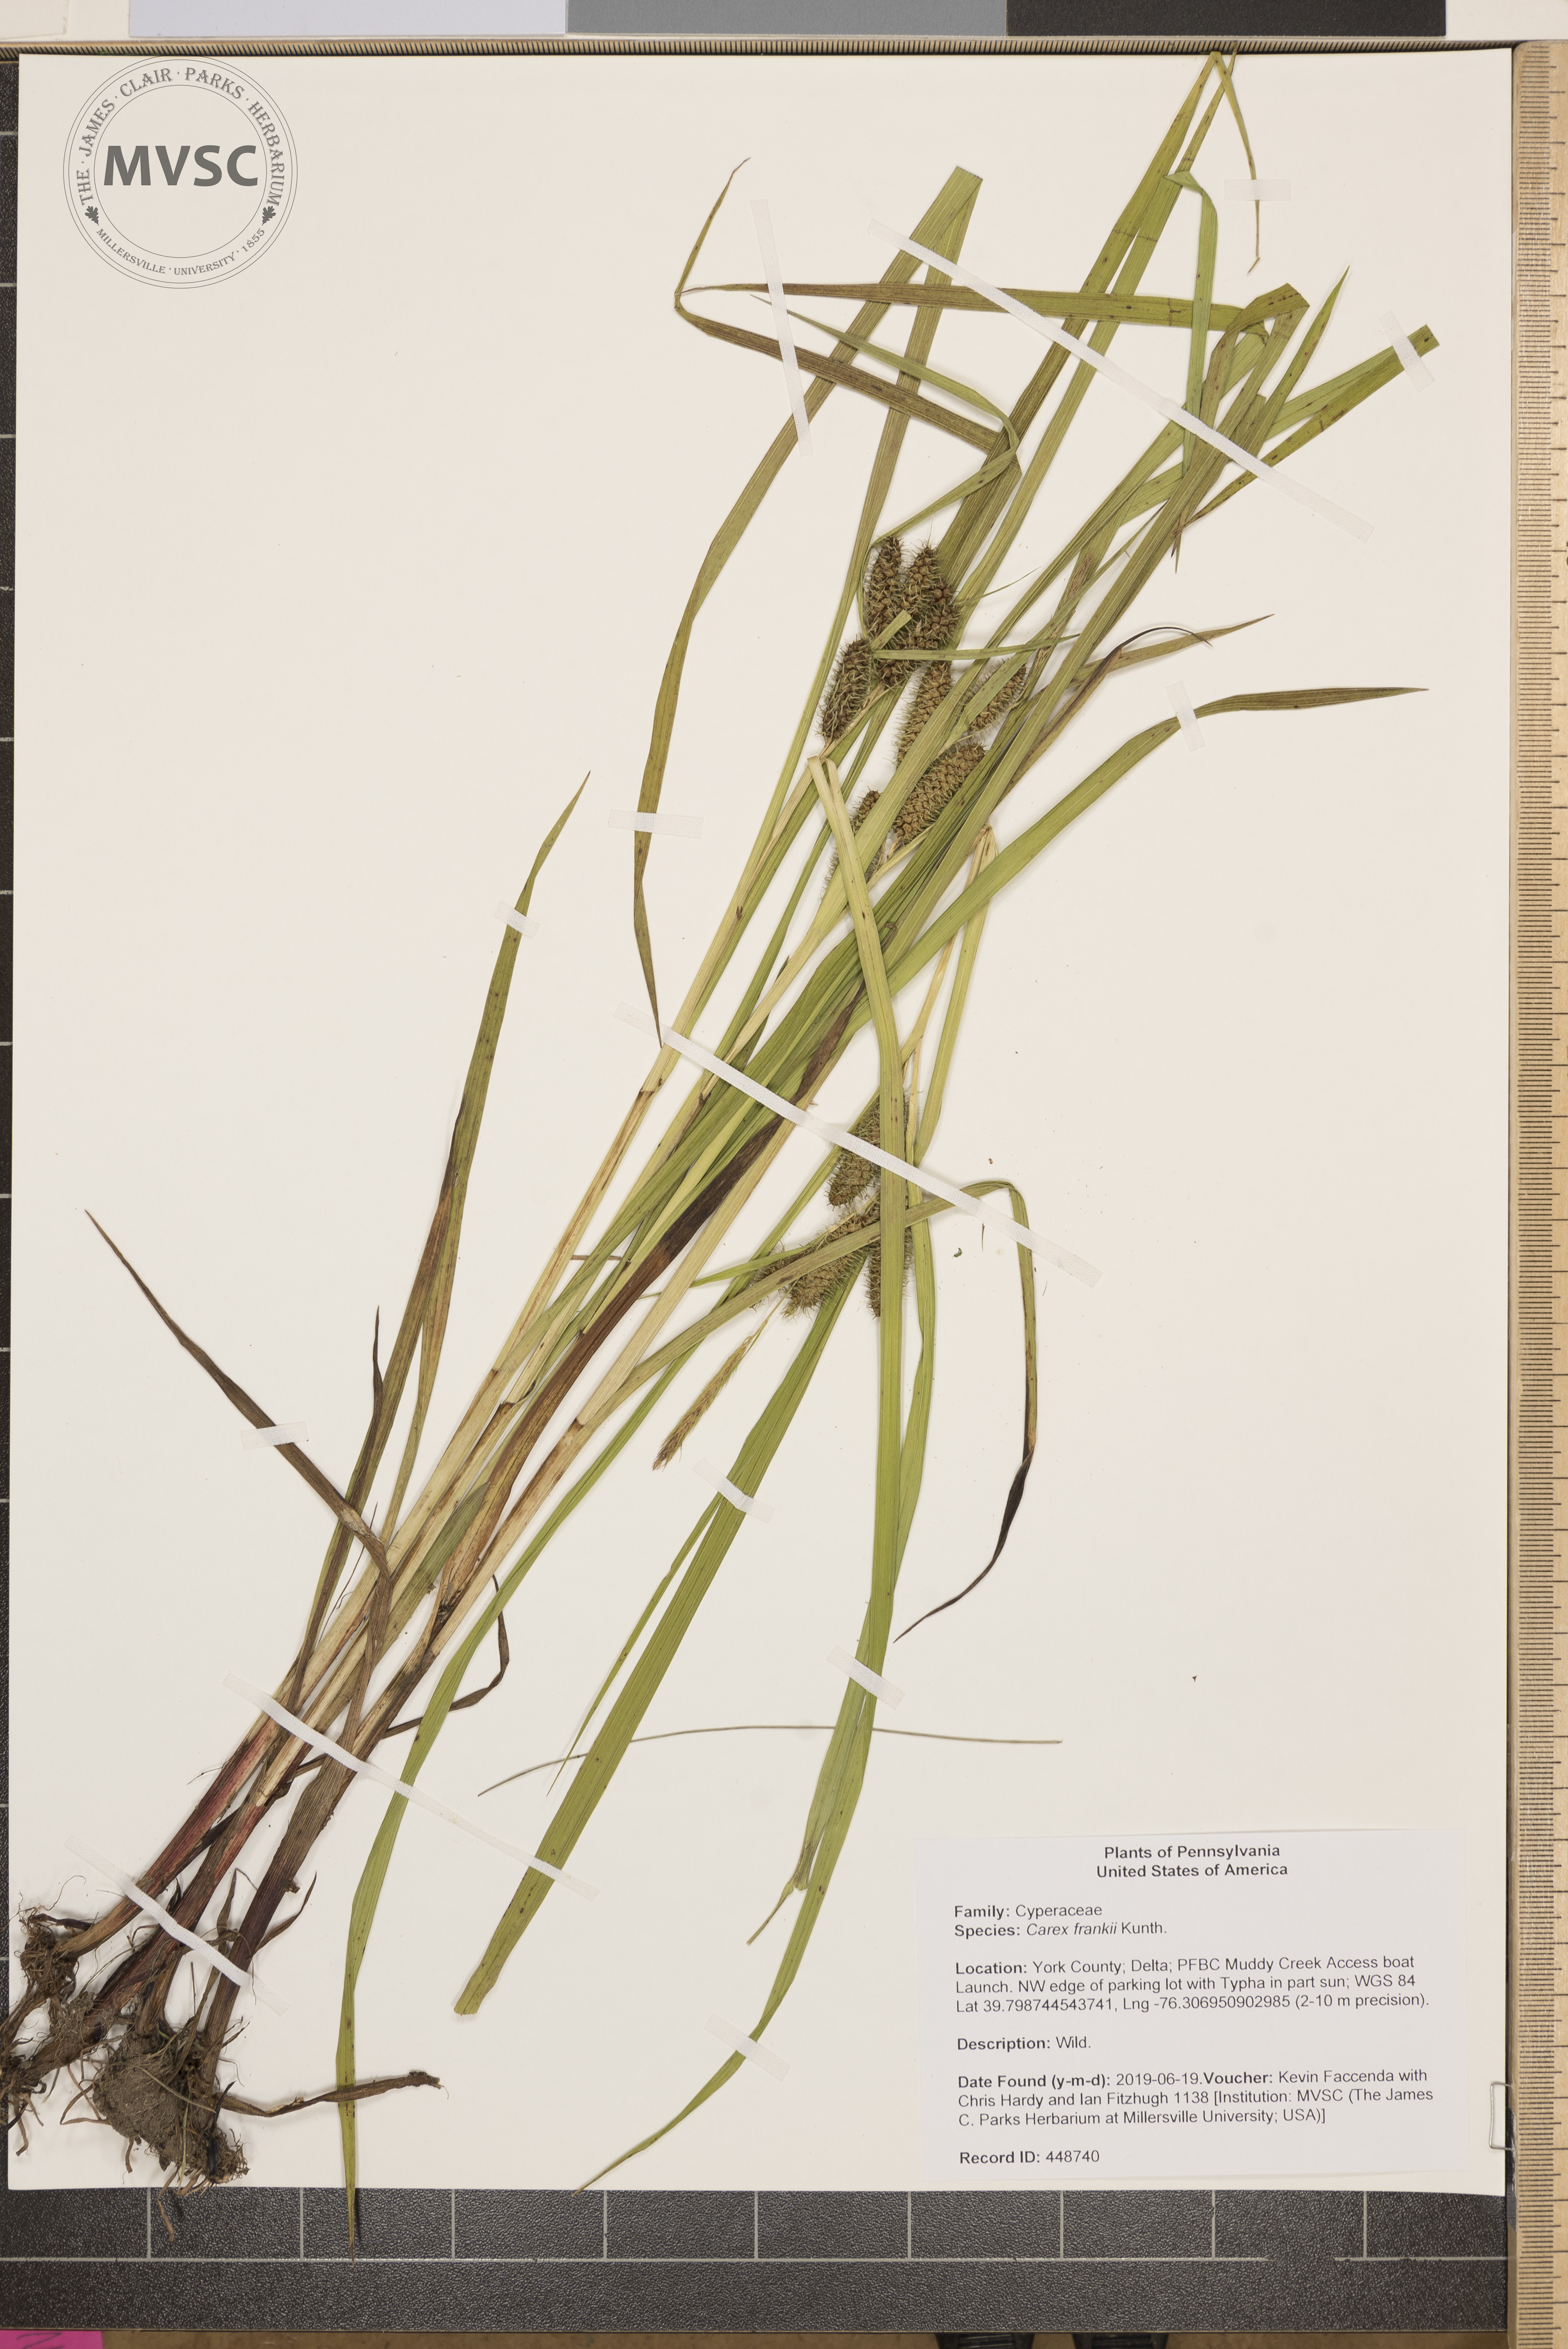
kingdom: Plantae
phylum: Tracheophyta
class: Liliopsida
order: Poales
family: Cyperaceae
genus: Carex
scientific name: Carex frankii
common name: Frank's sedge
